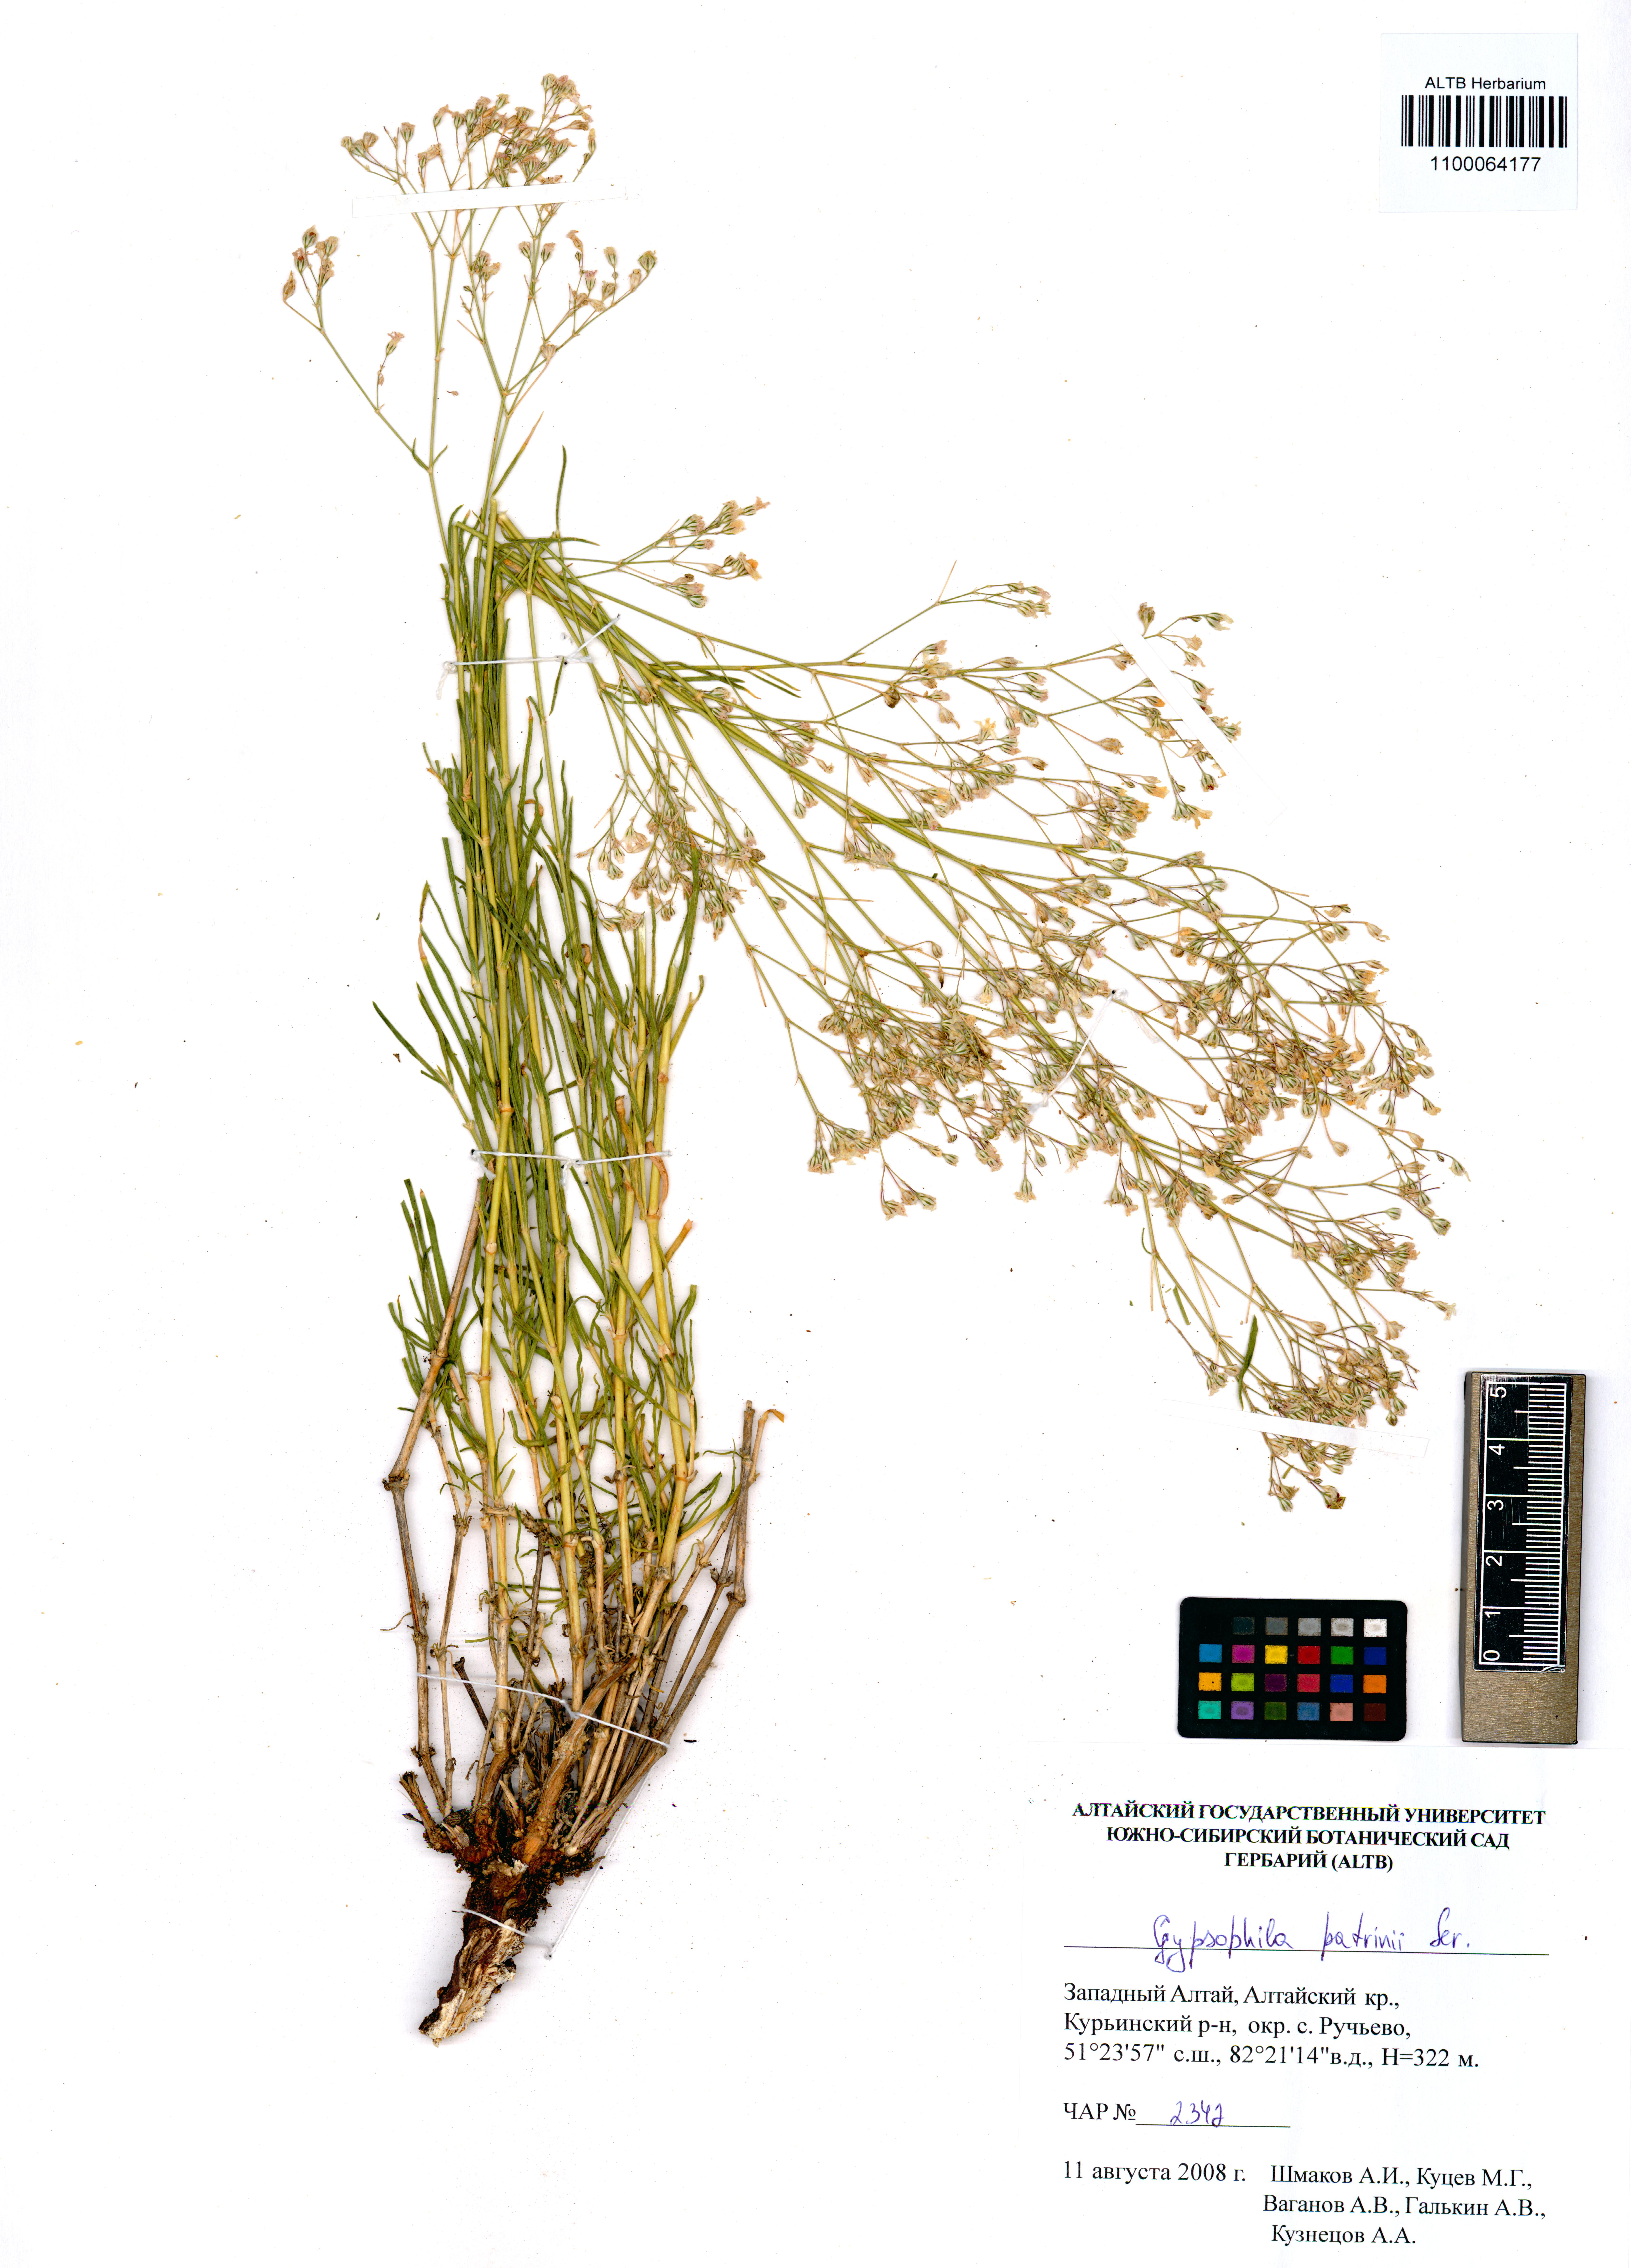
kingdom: Plantae
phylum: Tracheophyta
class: Magnoliopsida
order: Caryophyllales
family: Caryophyllaceae
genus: Gypsophila
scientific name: Gypsophila patrinii
